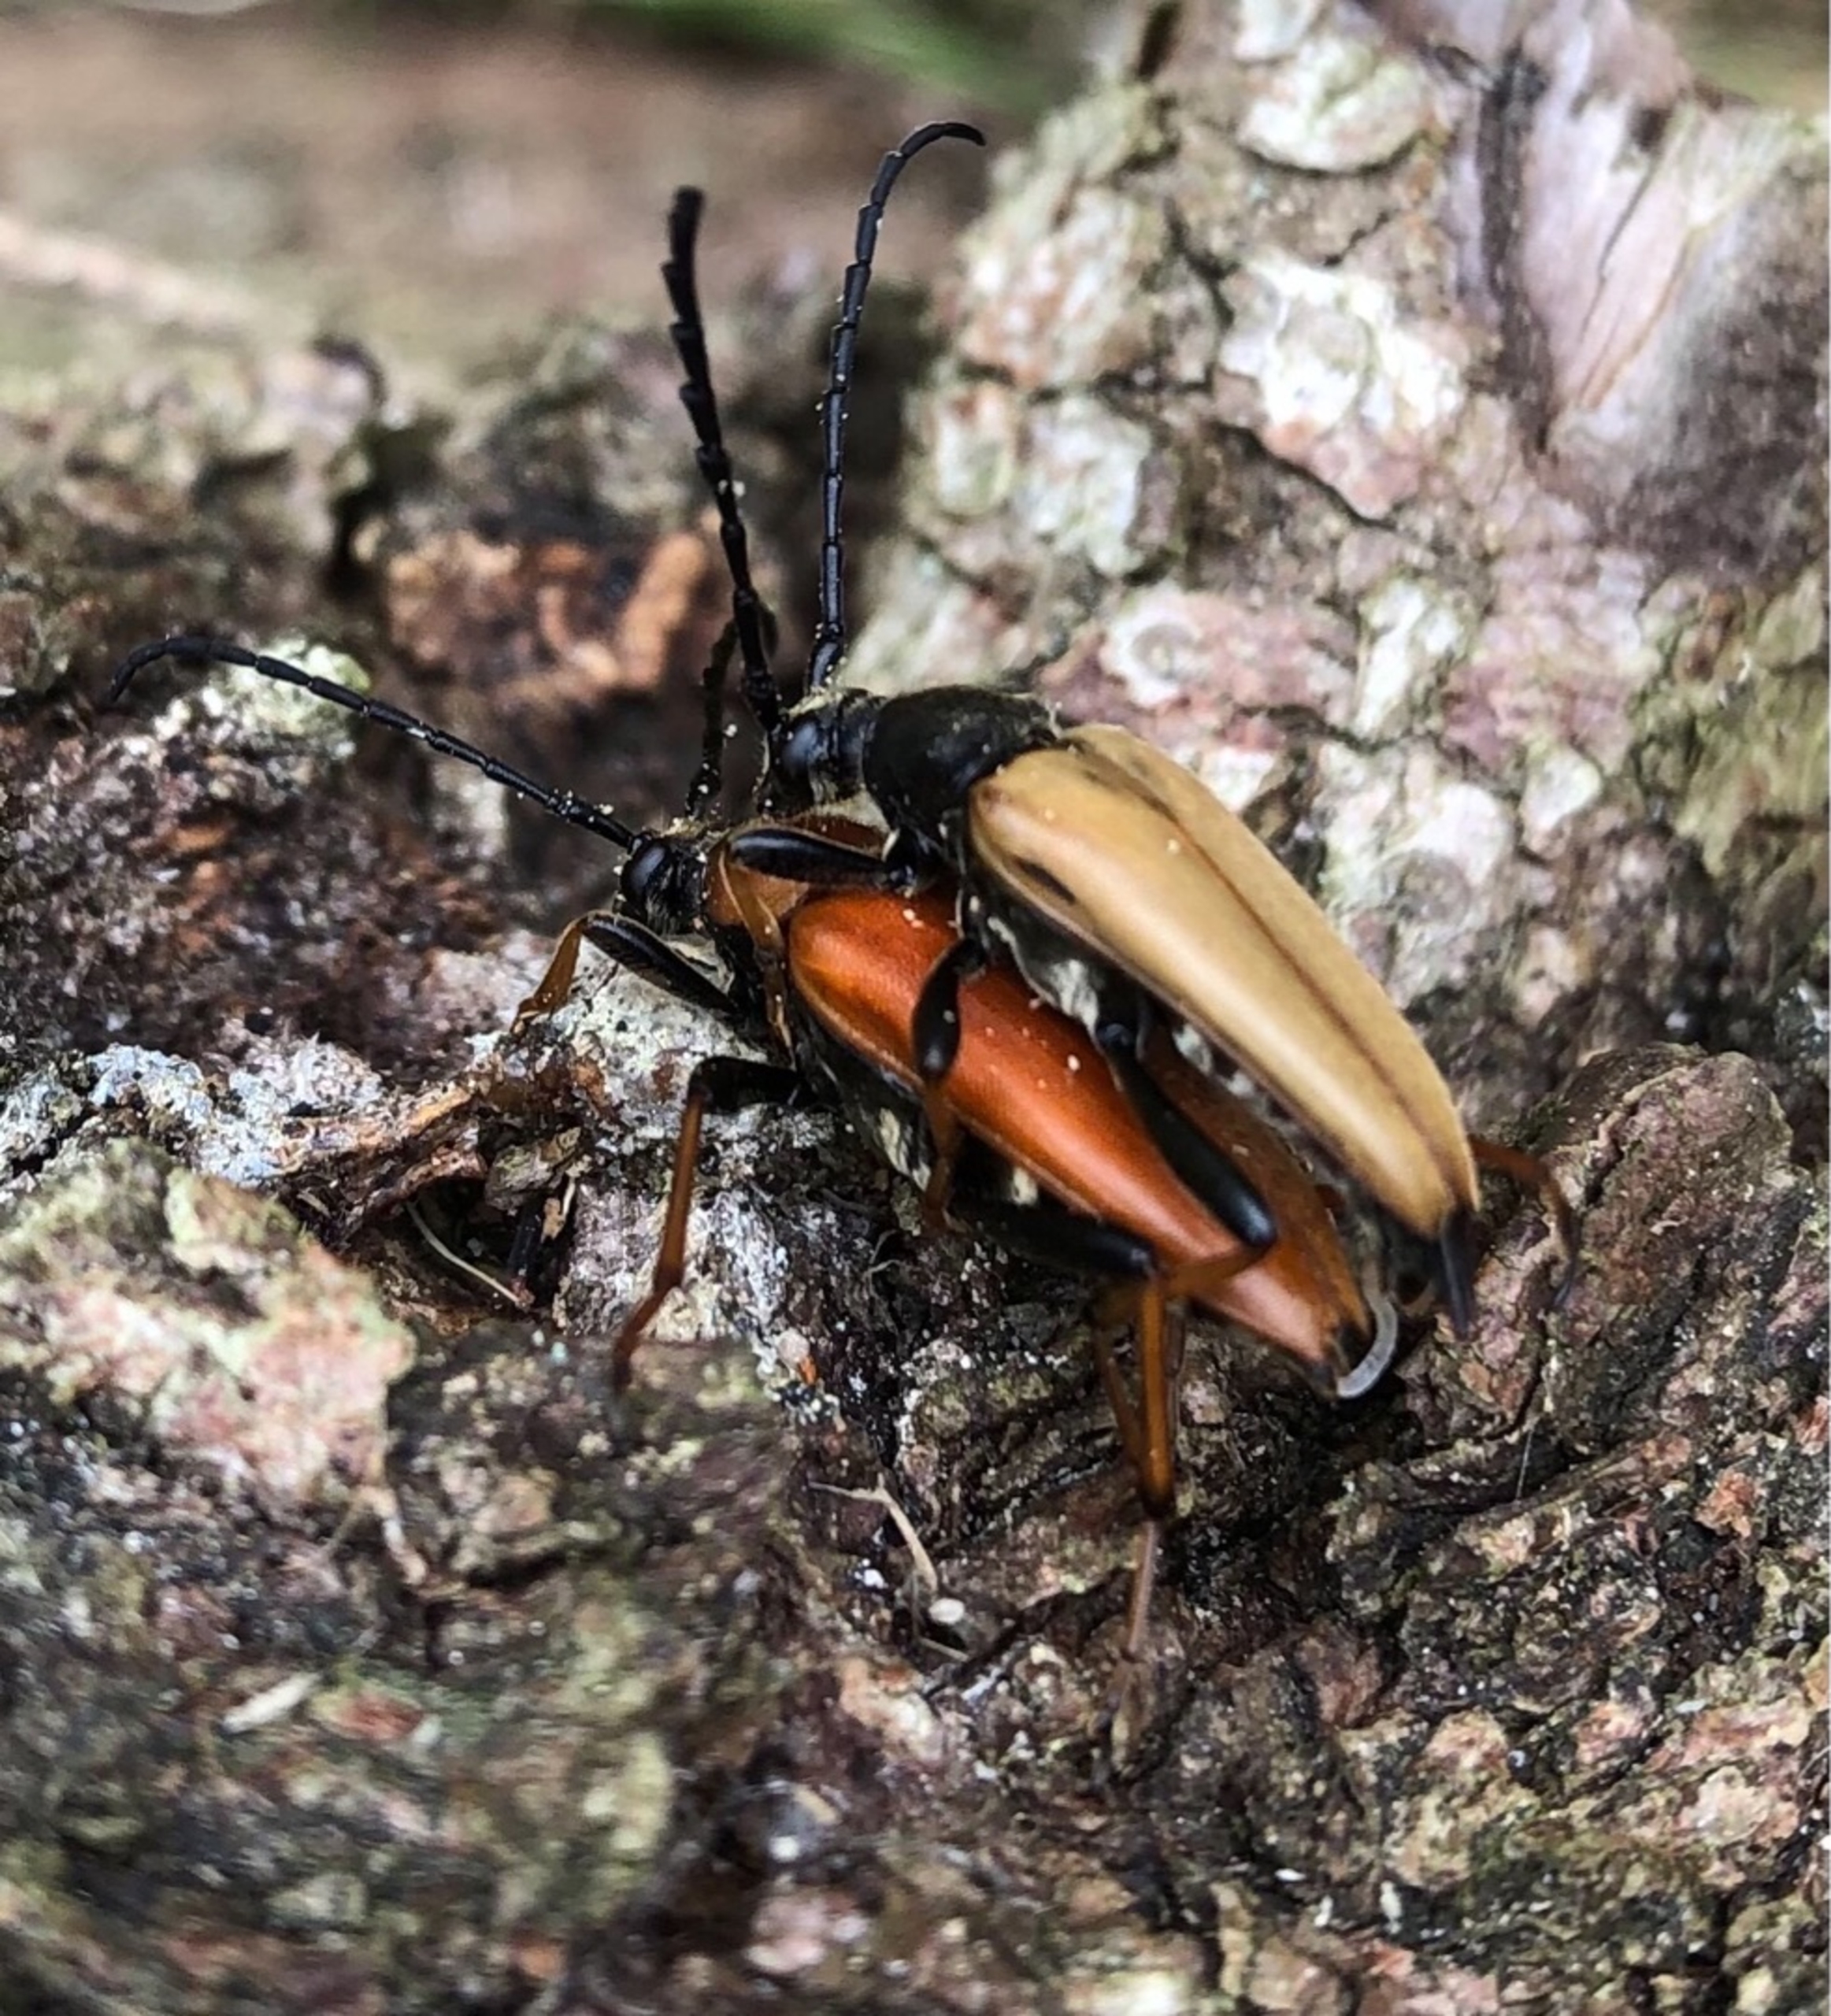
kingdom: Animalia
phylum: Arthropoda
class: Insecta
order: Coleoptera
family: Cerambycidae
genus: Stictoleptura
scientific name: Stictoleptura rubra
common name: Rød blomsterbuk
